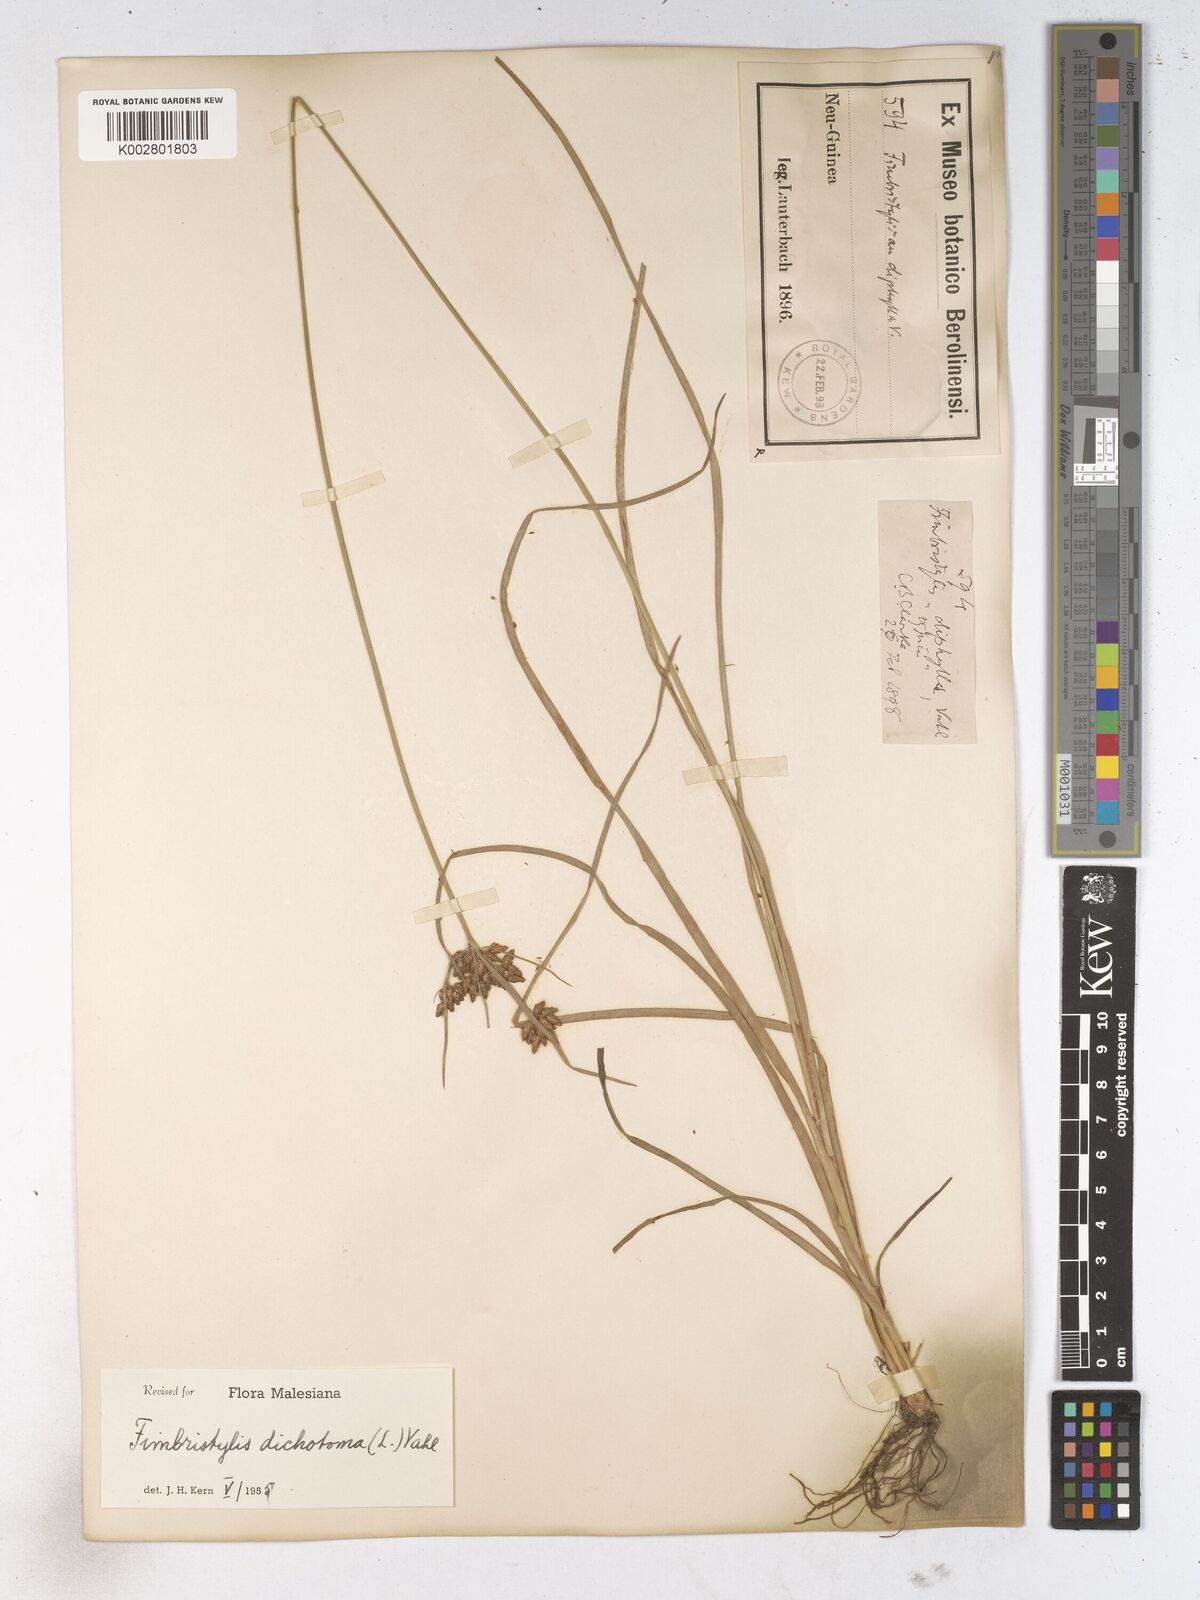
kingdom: Plantae
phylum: Tracheophyta
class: Liliopsida
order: Poales
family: Cyperaceae
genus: Fimbristylis
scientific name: Fimbristylis dichotoma
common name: Forked fimbry
